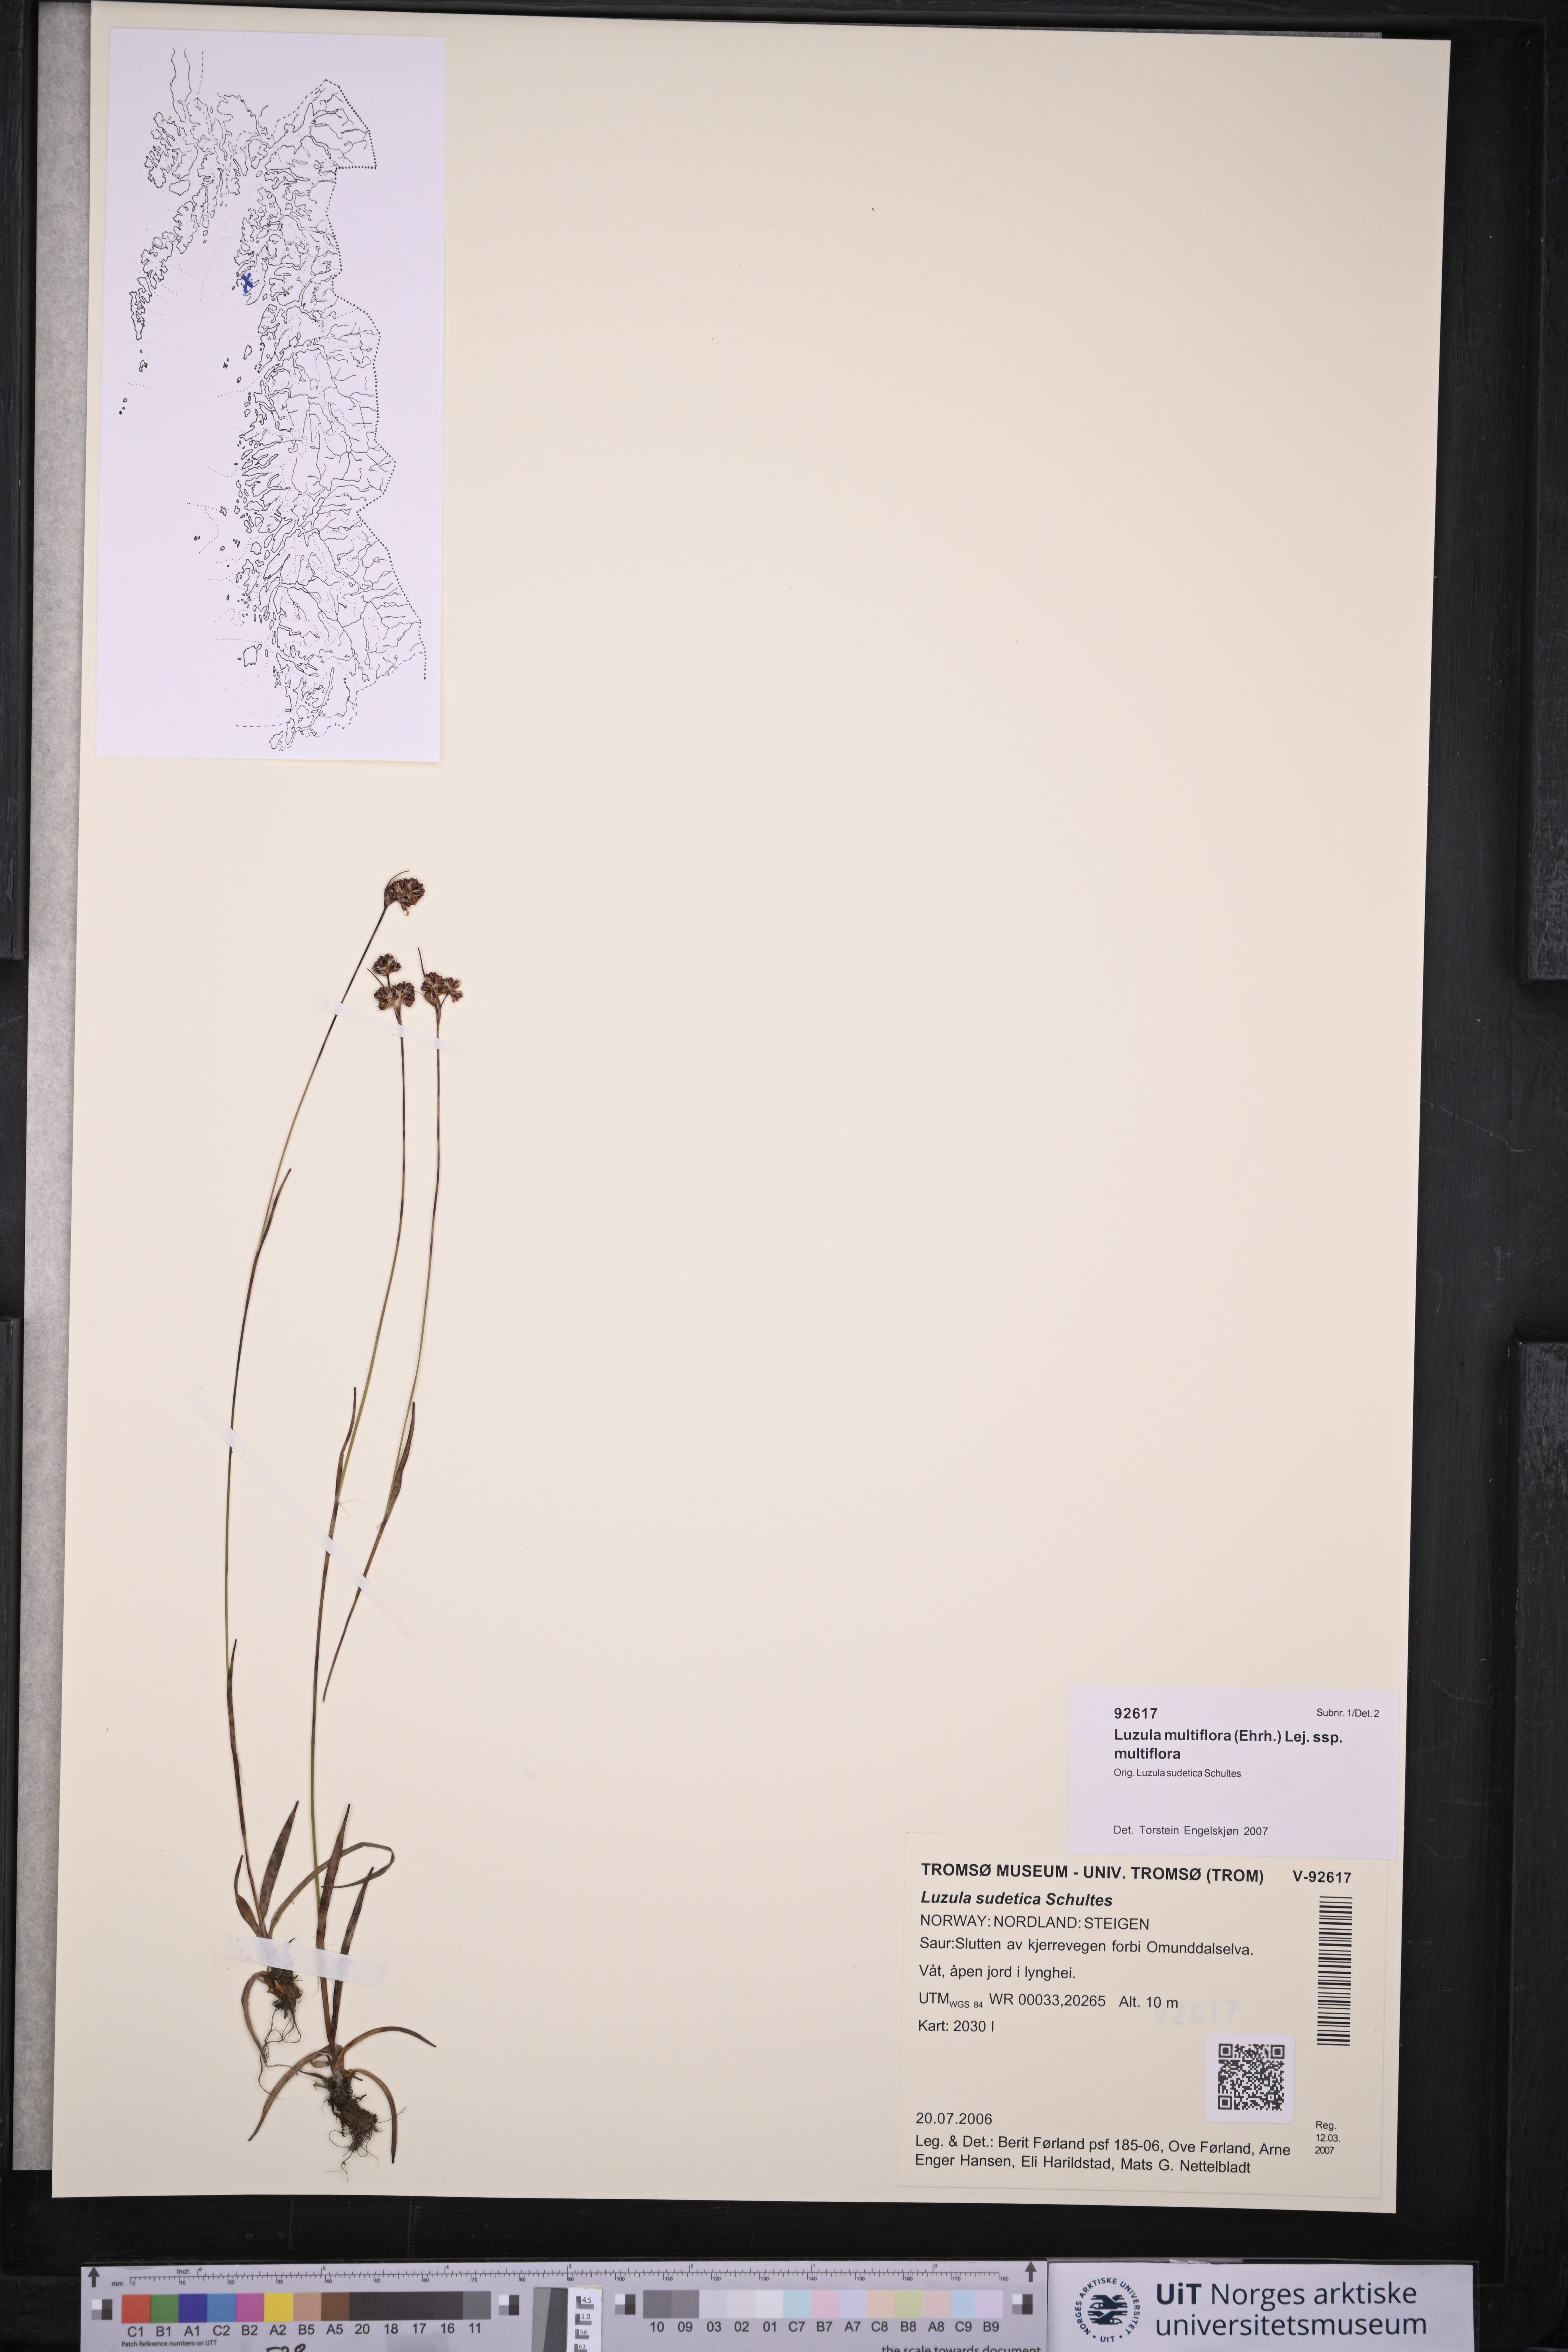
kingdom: Plantae
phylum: Tracheophyta
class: Liliopsida
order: Poales
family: Juncaceae
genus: Luzula
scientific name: Luzula multiflora
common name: Heath wood-rush
